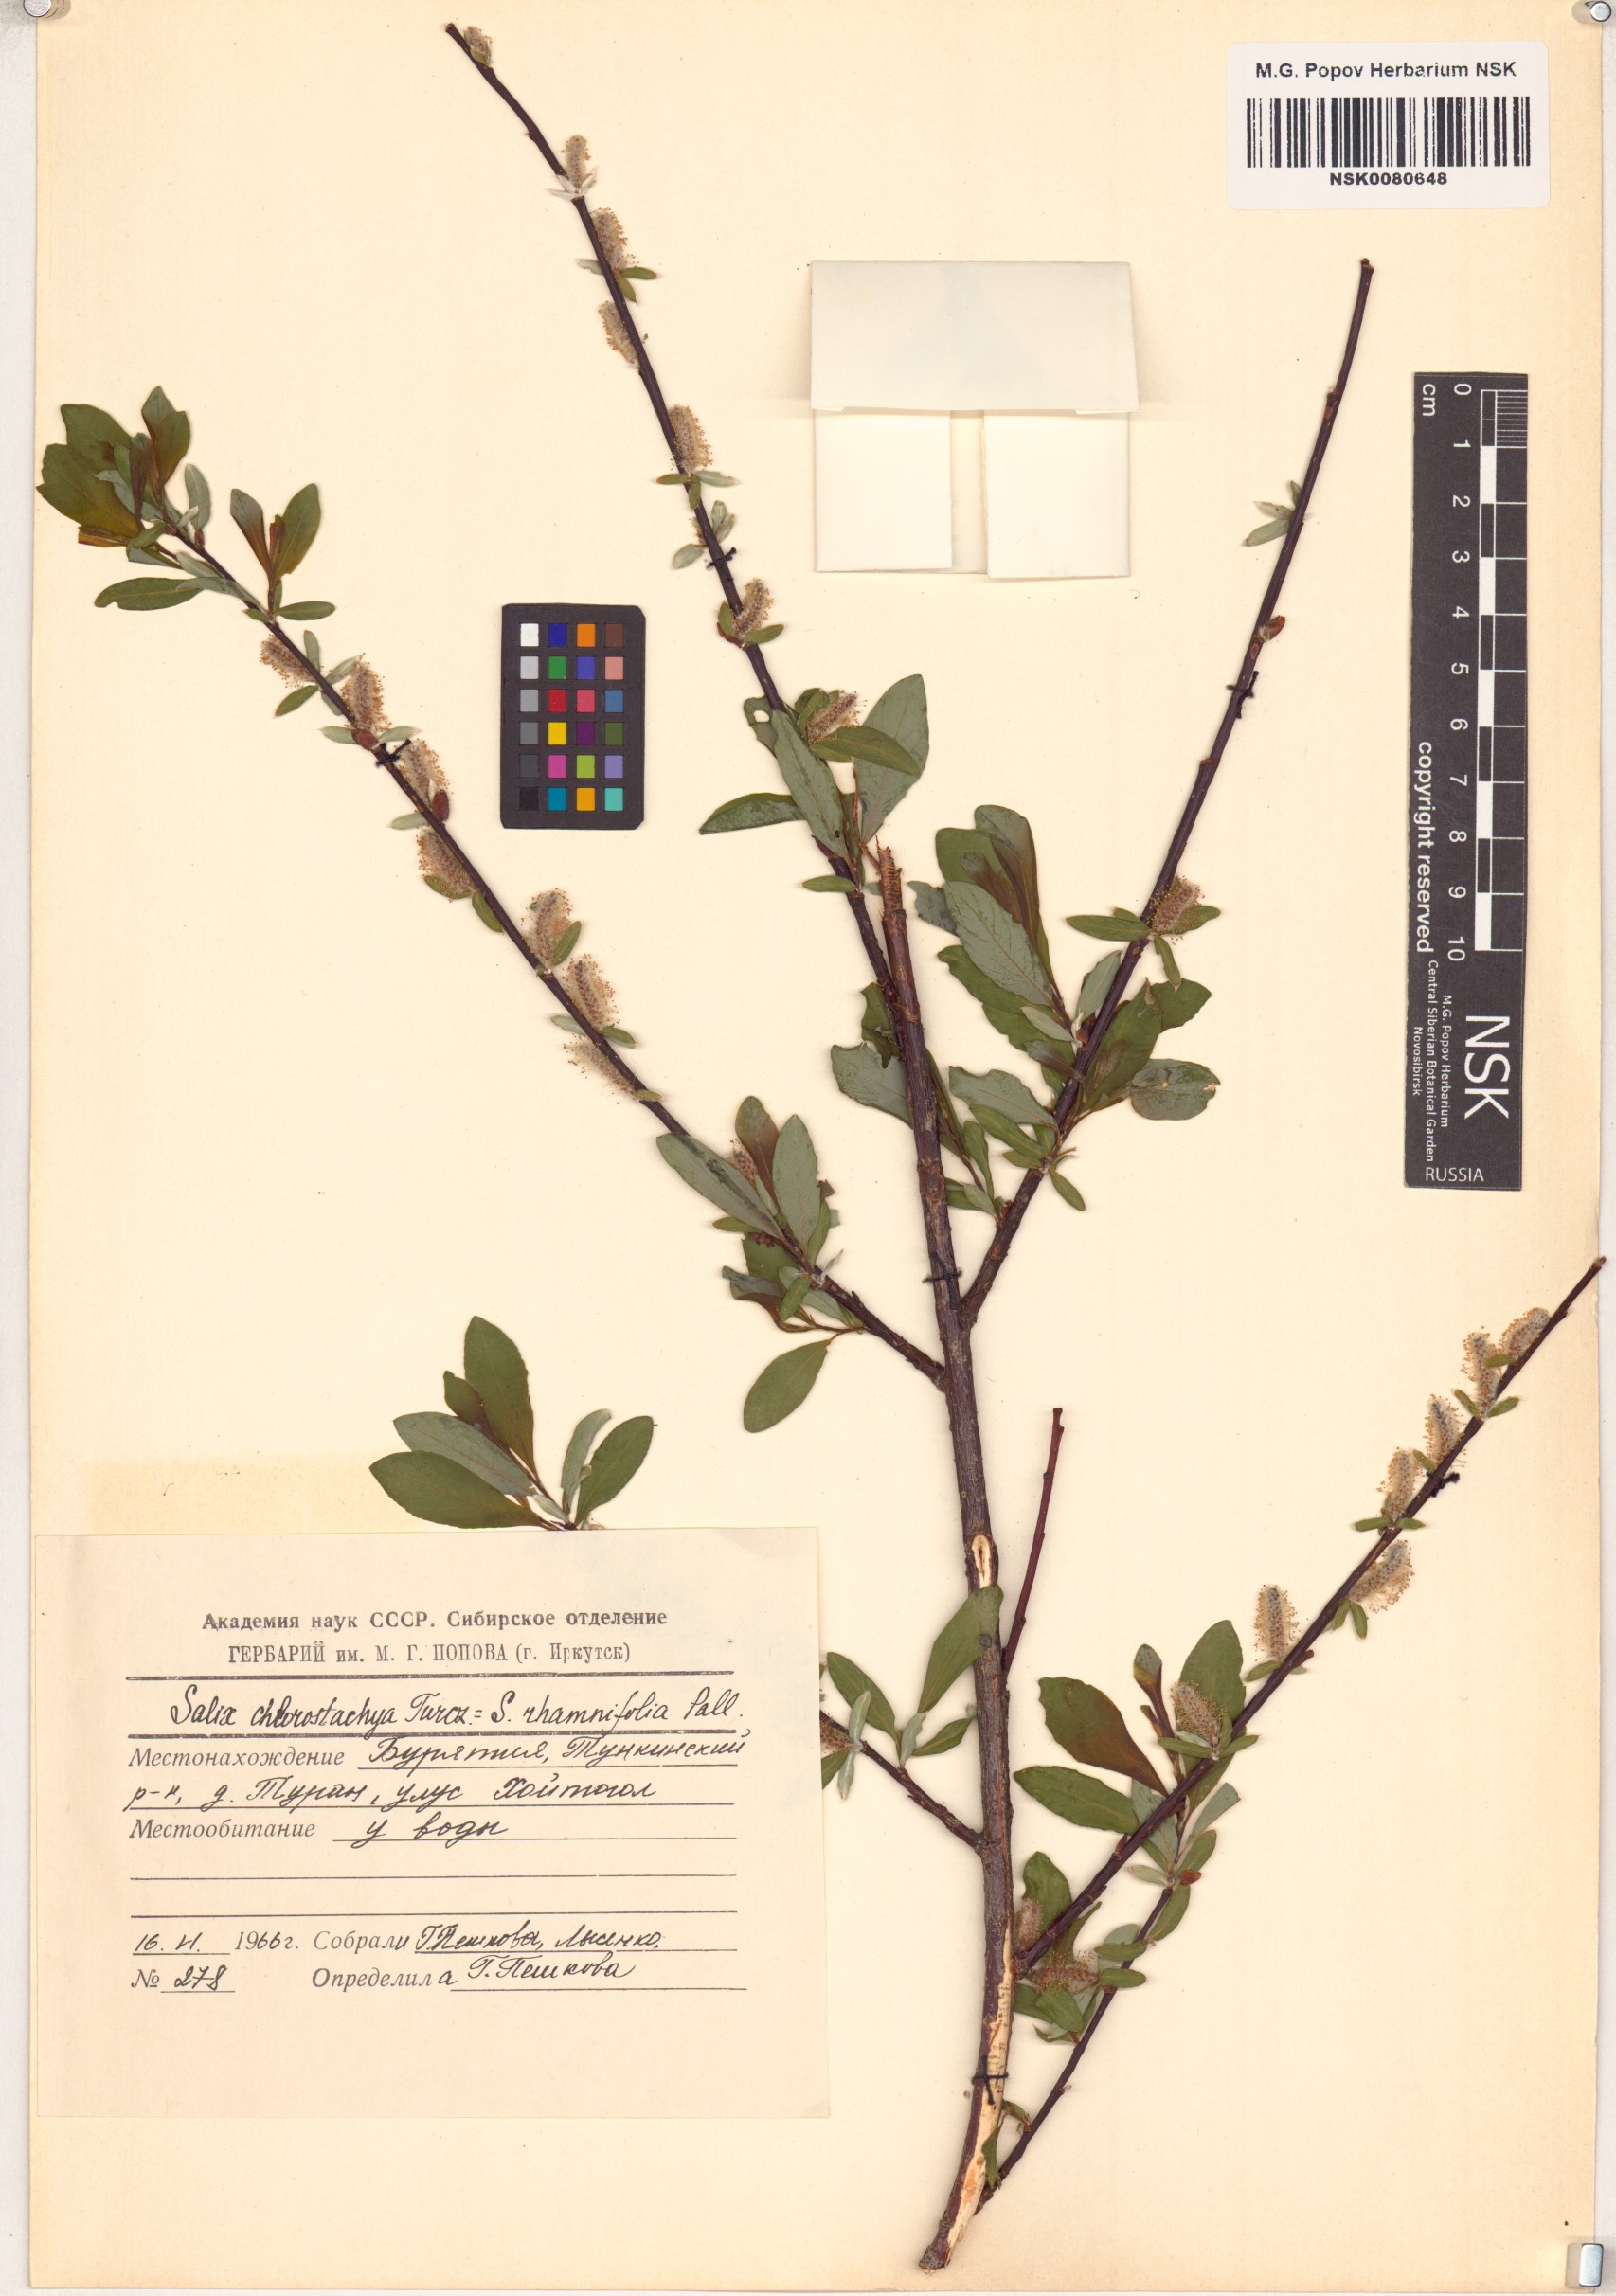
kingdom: Plantae
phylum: Tracheophyta
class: Magnoliopsida
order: Malpighiales
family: Salicaceae
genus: Salix
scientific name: Salix rhamnifolia
